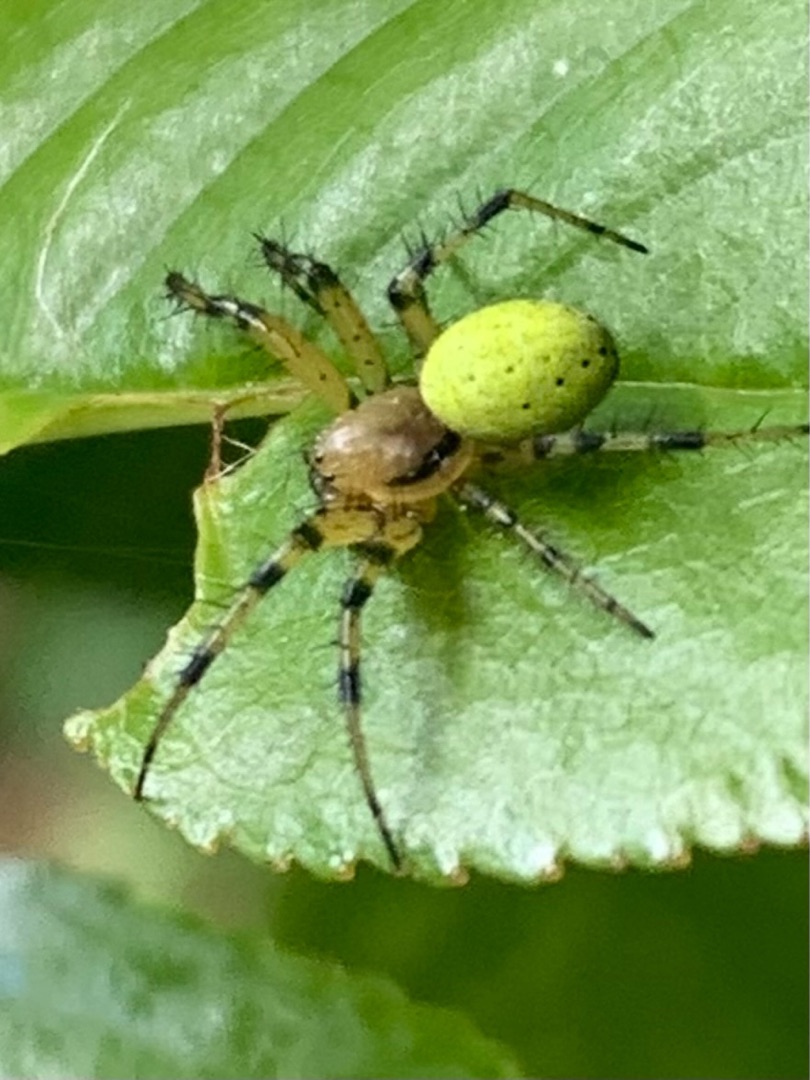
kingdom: Animalia
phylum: Arthropoda
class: Arachnida
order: Araneae
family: Araneidae
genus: Araniella
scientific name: Araniella
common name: Agurkeedderkopslægten
